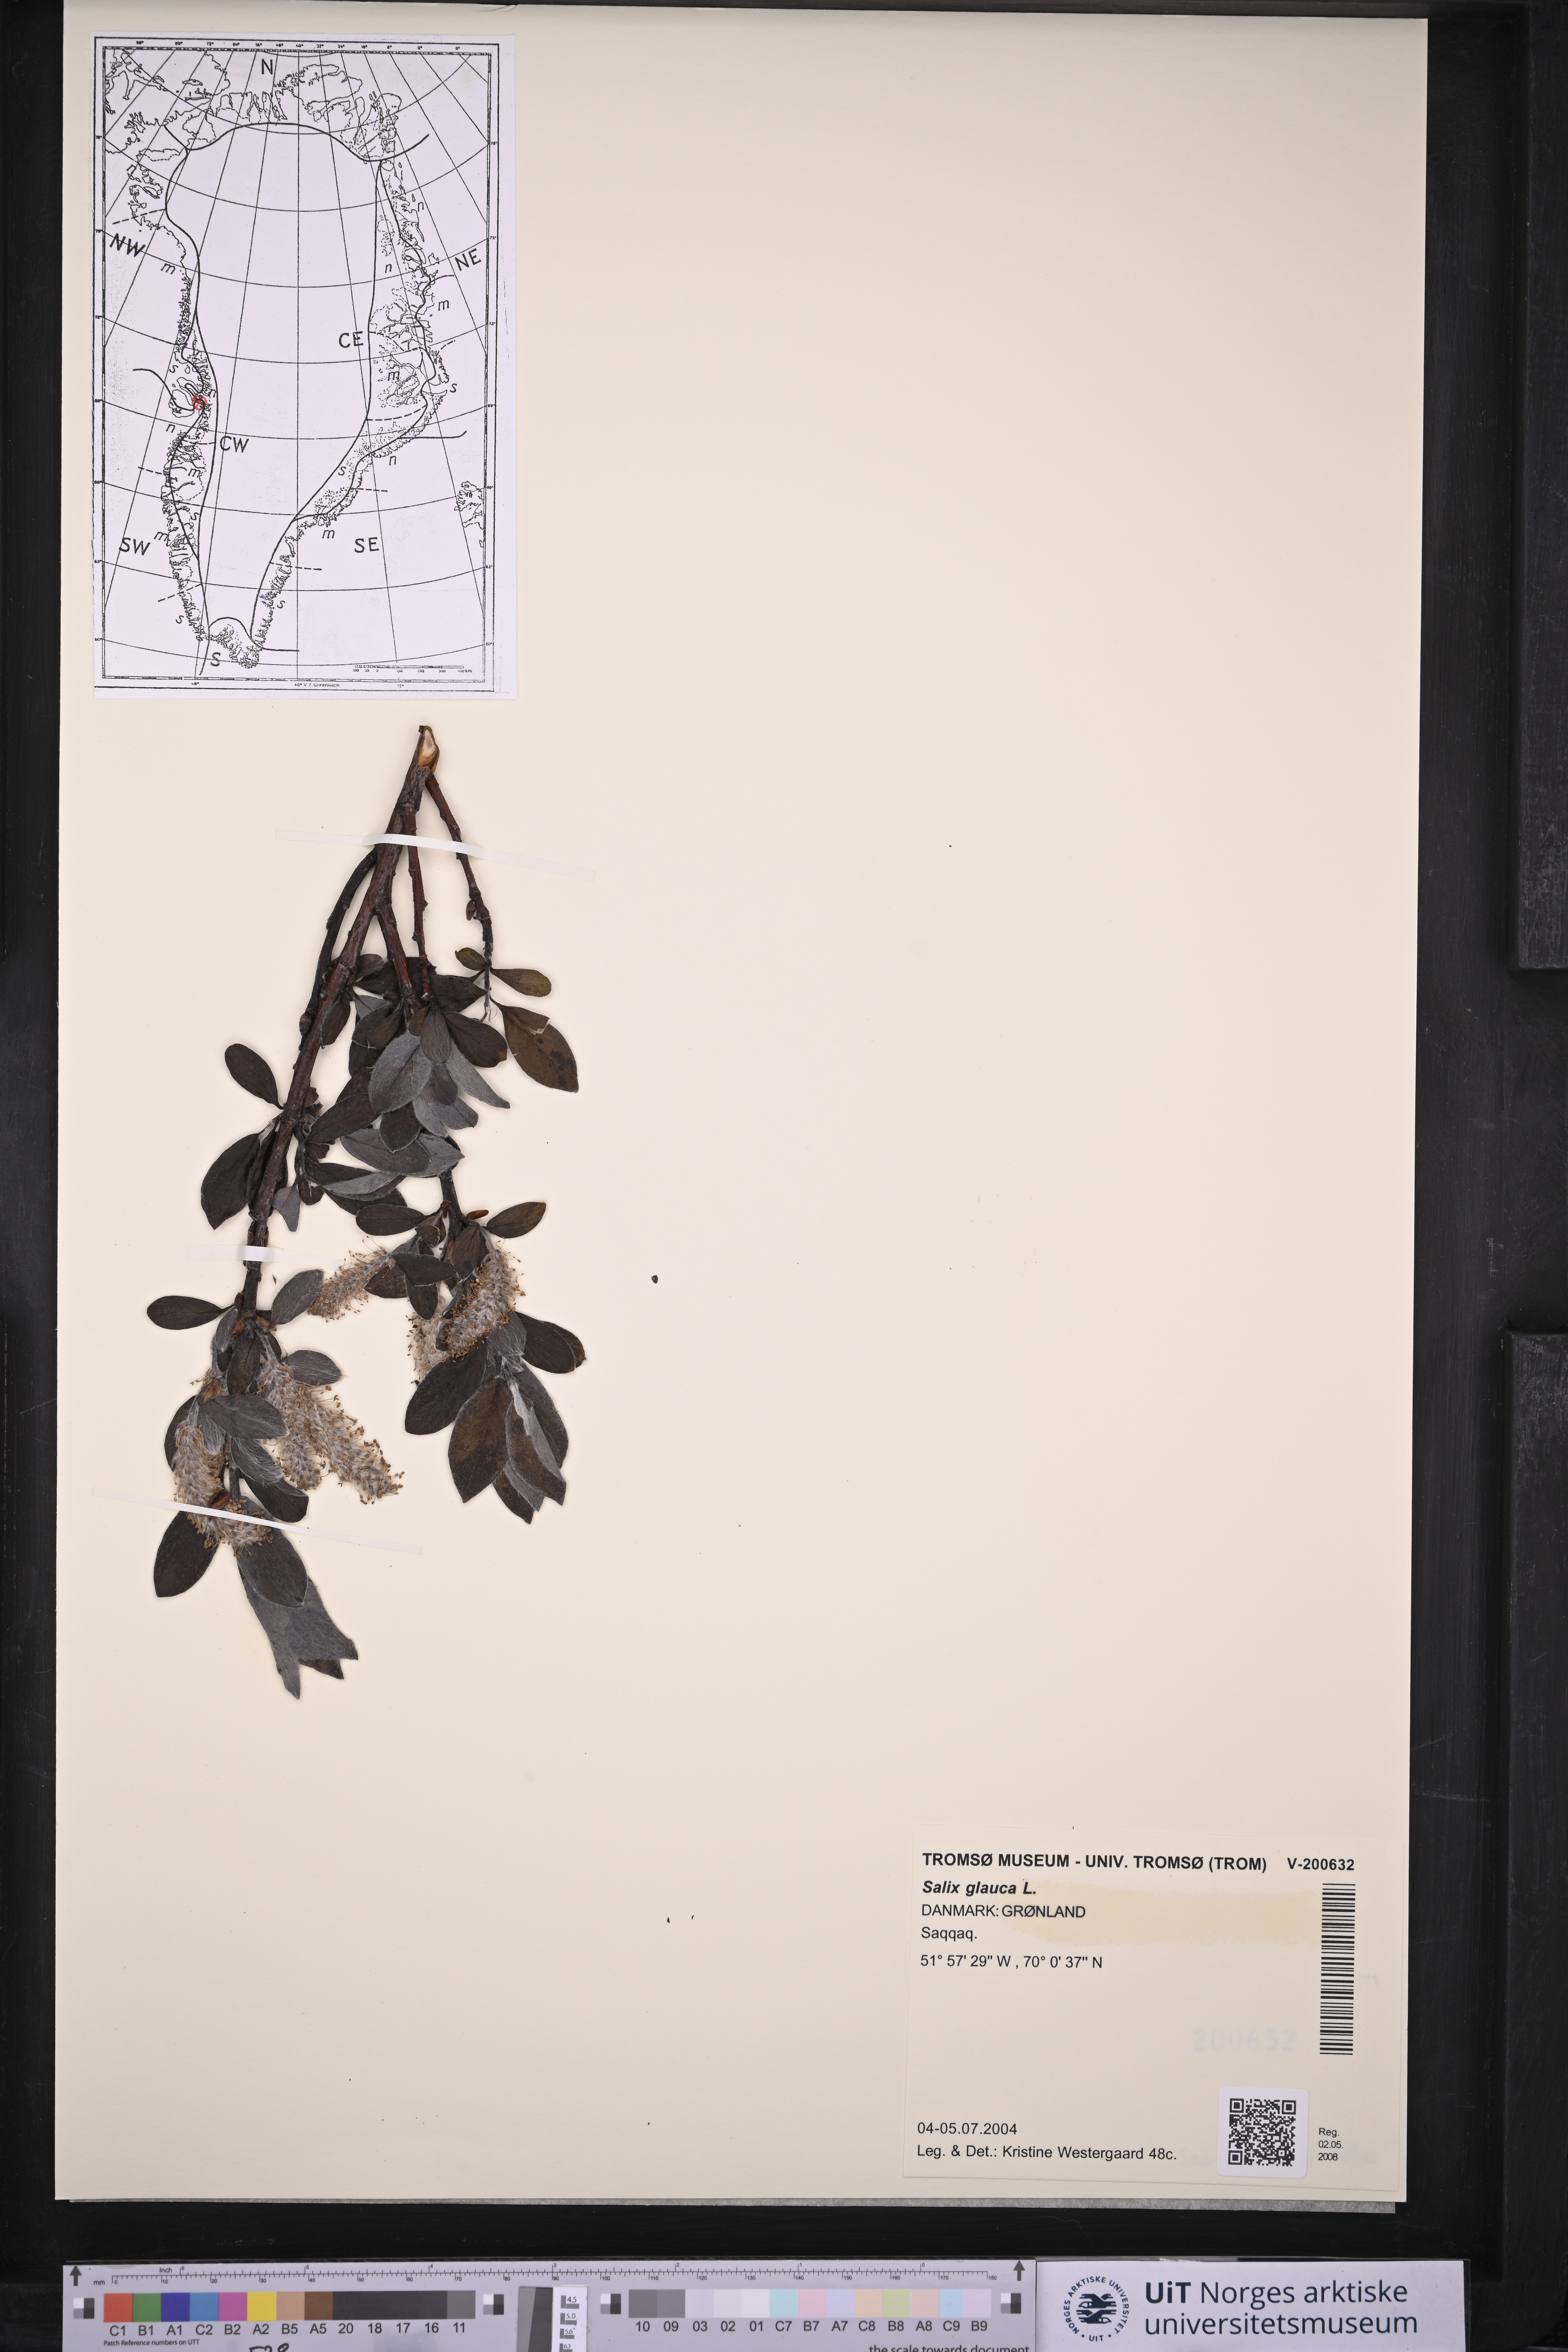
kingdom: Plantae
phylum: Tracheophyta
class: Magnoliopsida
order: Malpighiales
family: Salicaceae
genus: Salix
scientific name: Salix glauca
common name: Glaucous willow
